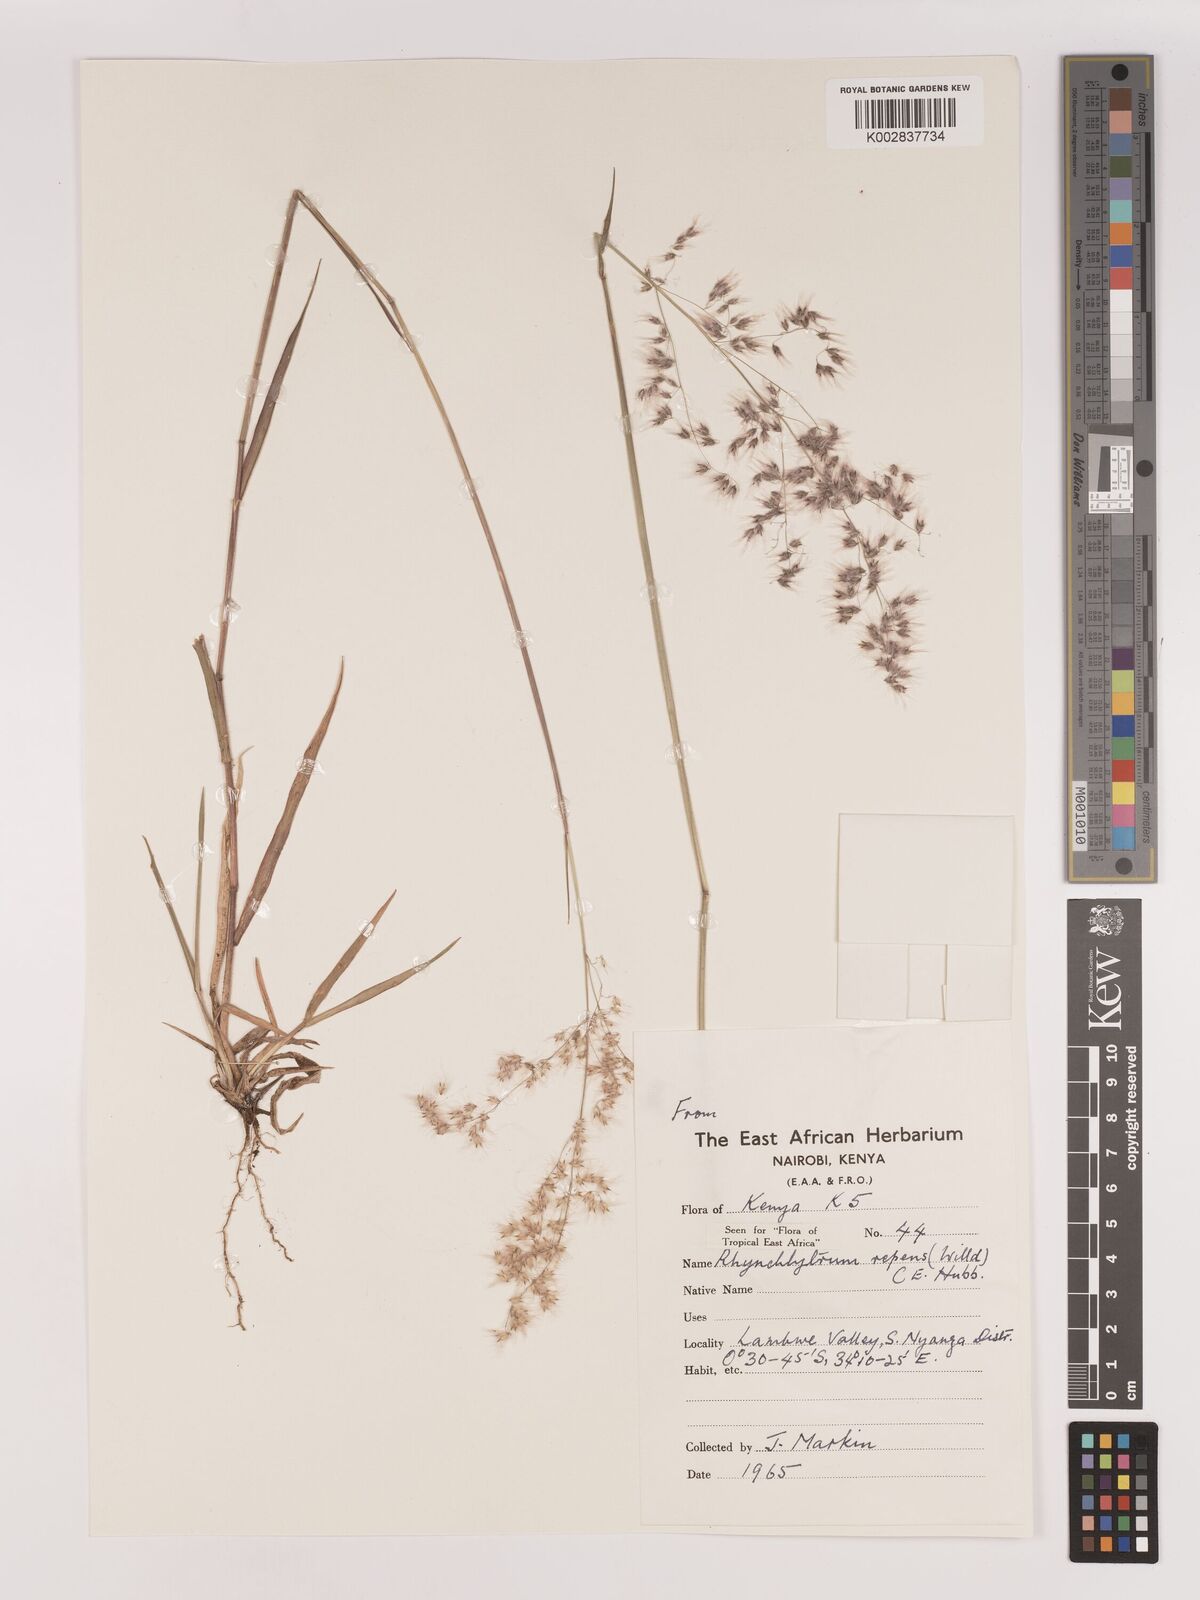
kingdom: Plantae
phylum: Tracheophyta
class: Liliopsida
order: Poales
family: Poaceae
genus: Melinis
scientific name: Melinis repens
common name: Rose natal grass
